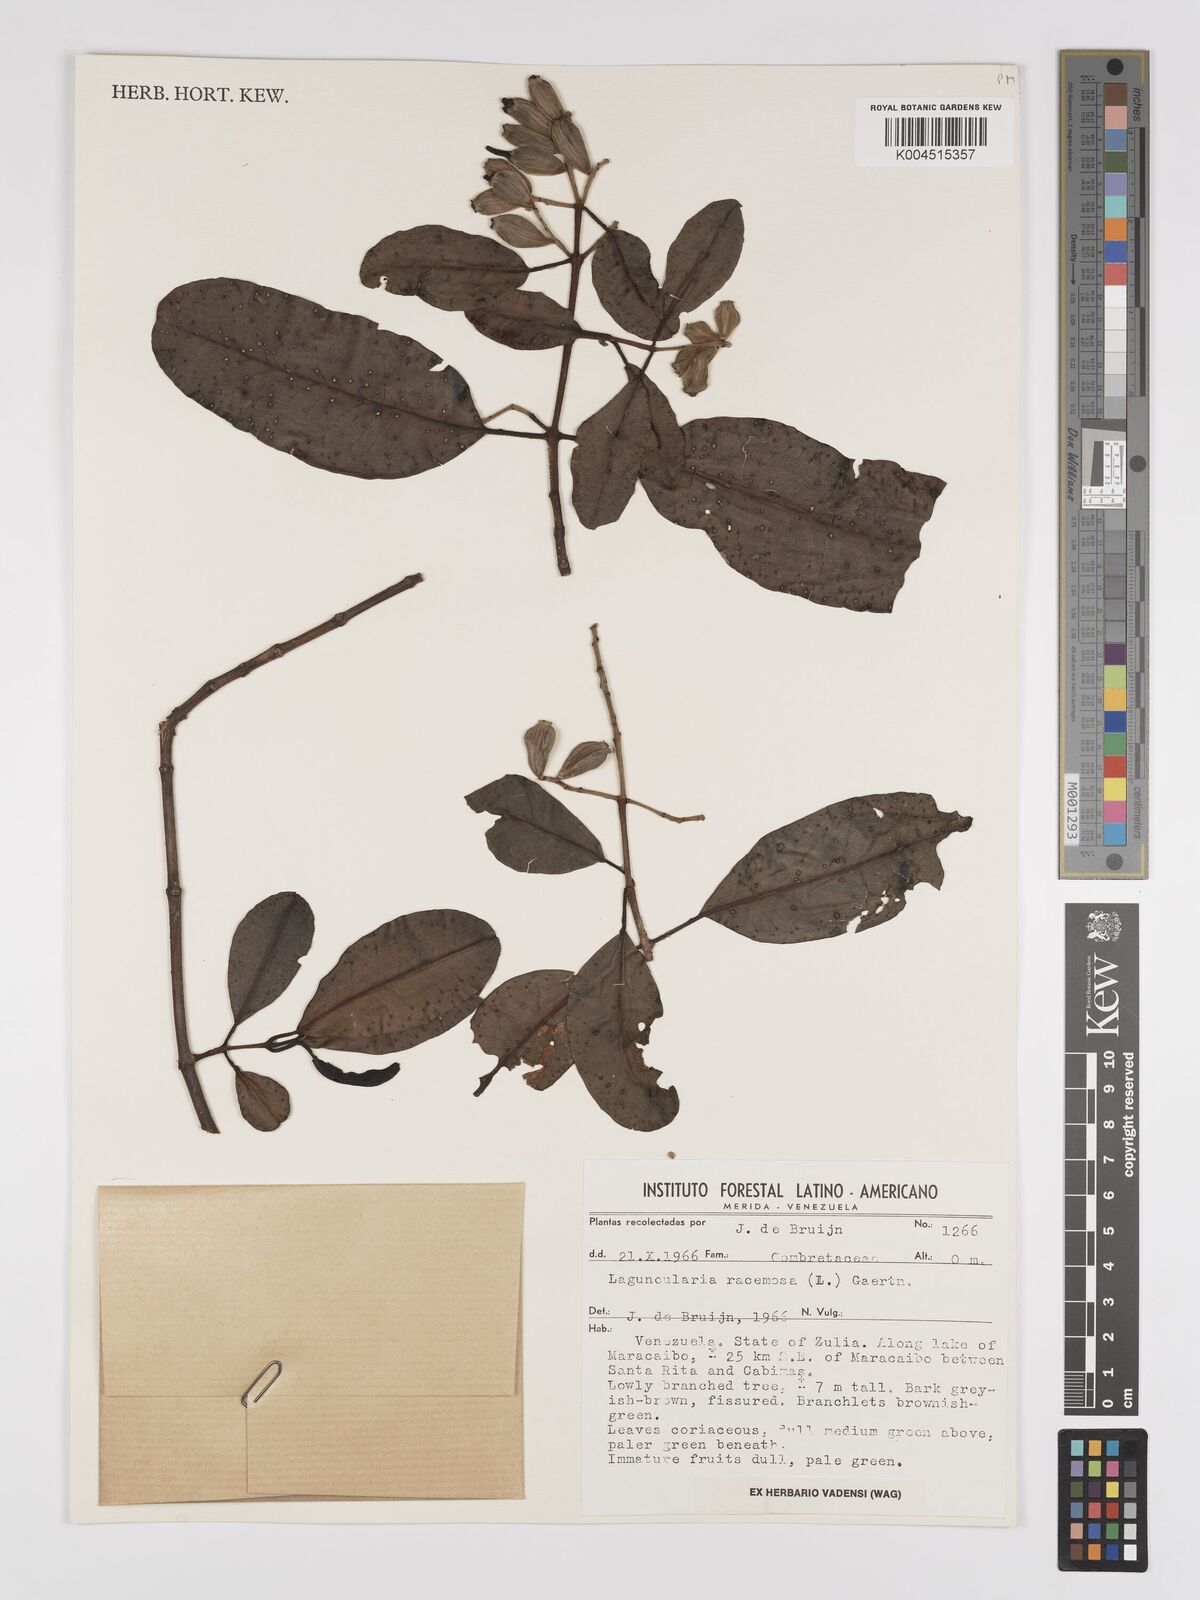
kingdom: Plantae
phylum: Tracheophyta
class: Magnoliopsida
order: Myrtales
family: Combretaceae
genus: Laguncularia
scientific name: Laguncularia racemosa
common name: White mangrove
